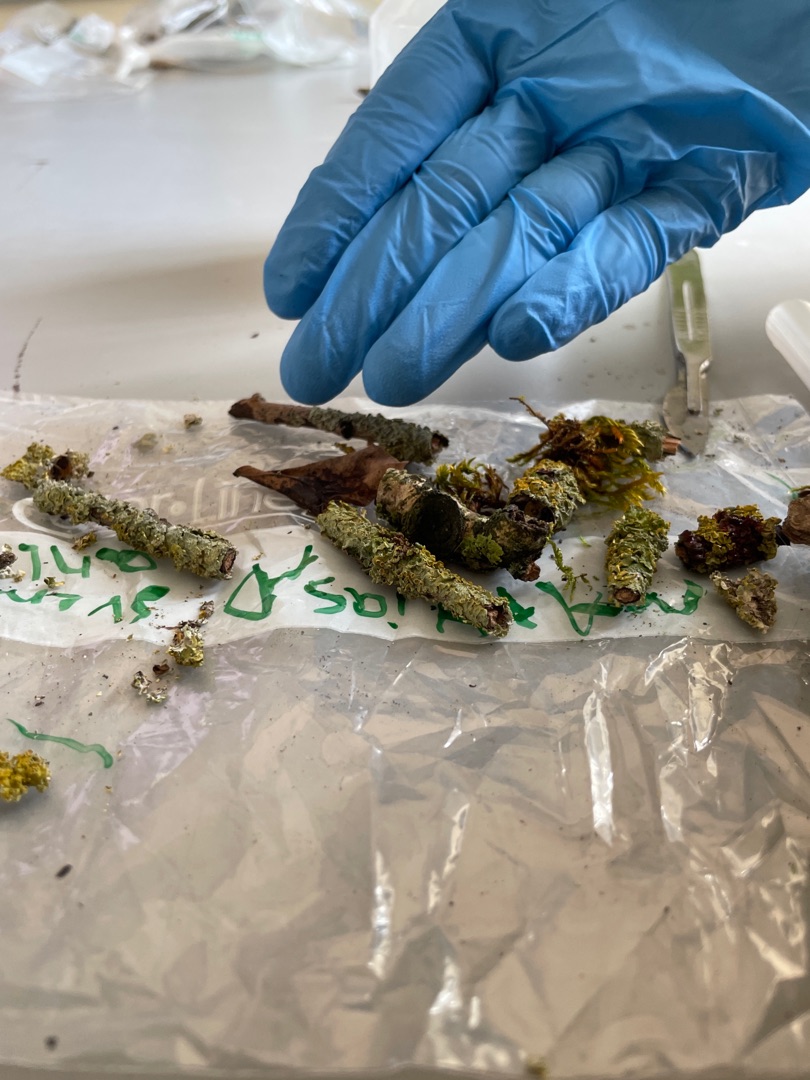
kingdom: Fungi
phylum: Ascomycota
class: Lecanoromycetes
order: Teloschistales
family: Teloschistaceae
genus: Xanthoria
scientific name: Xanthoria parietina
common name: Almindelig væggelav
